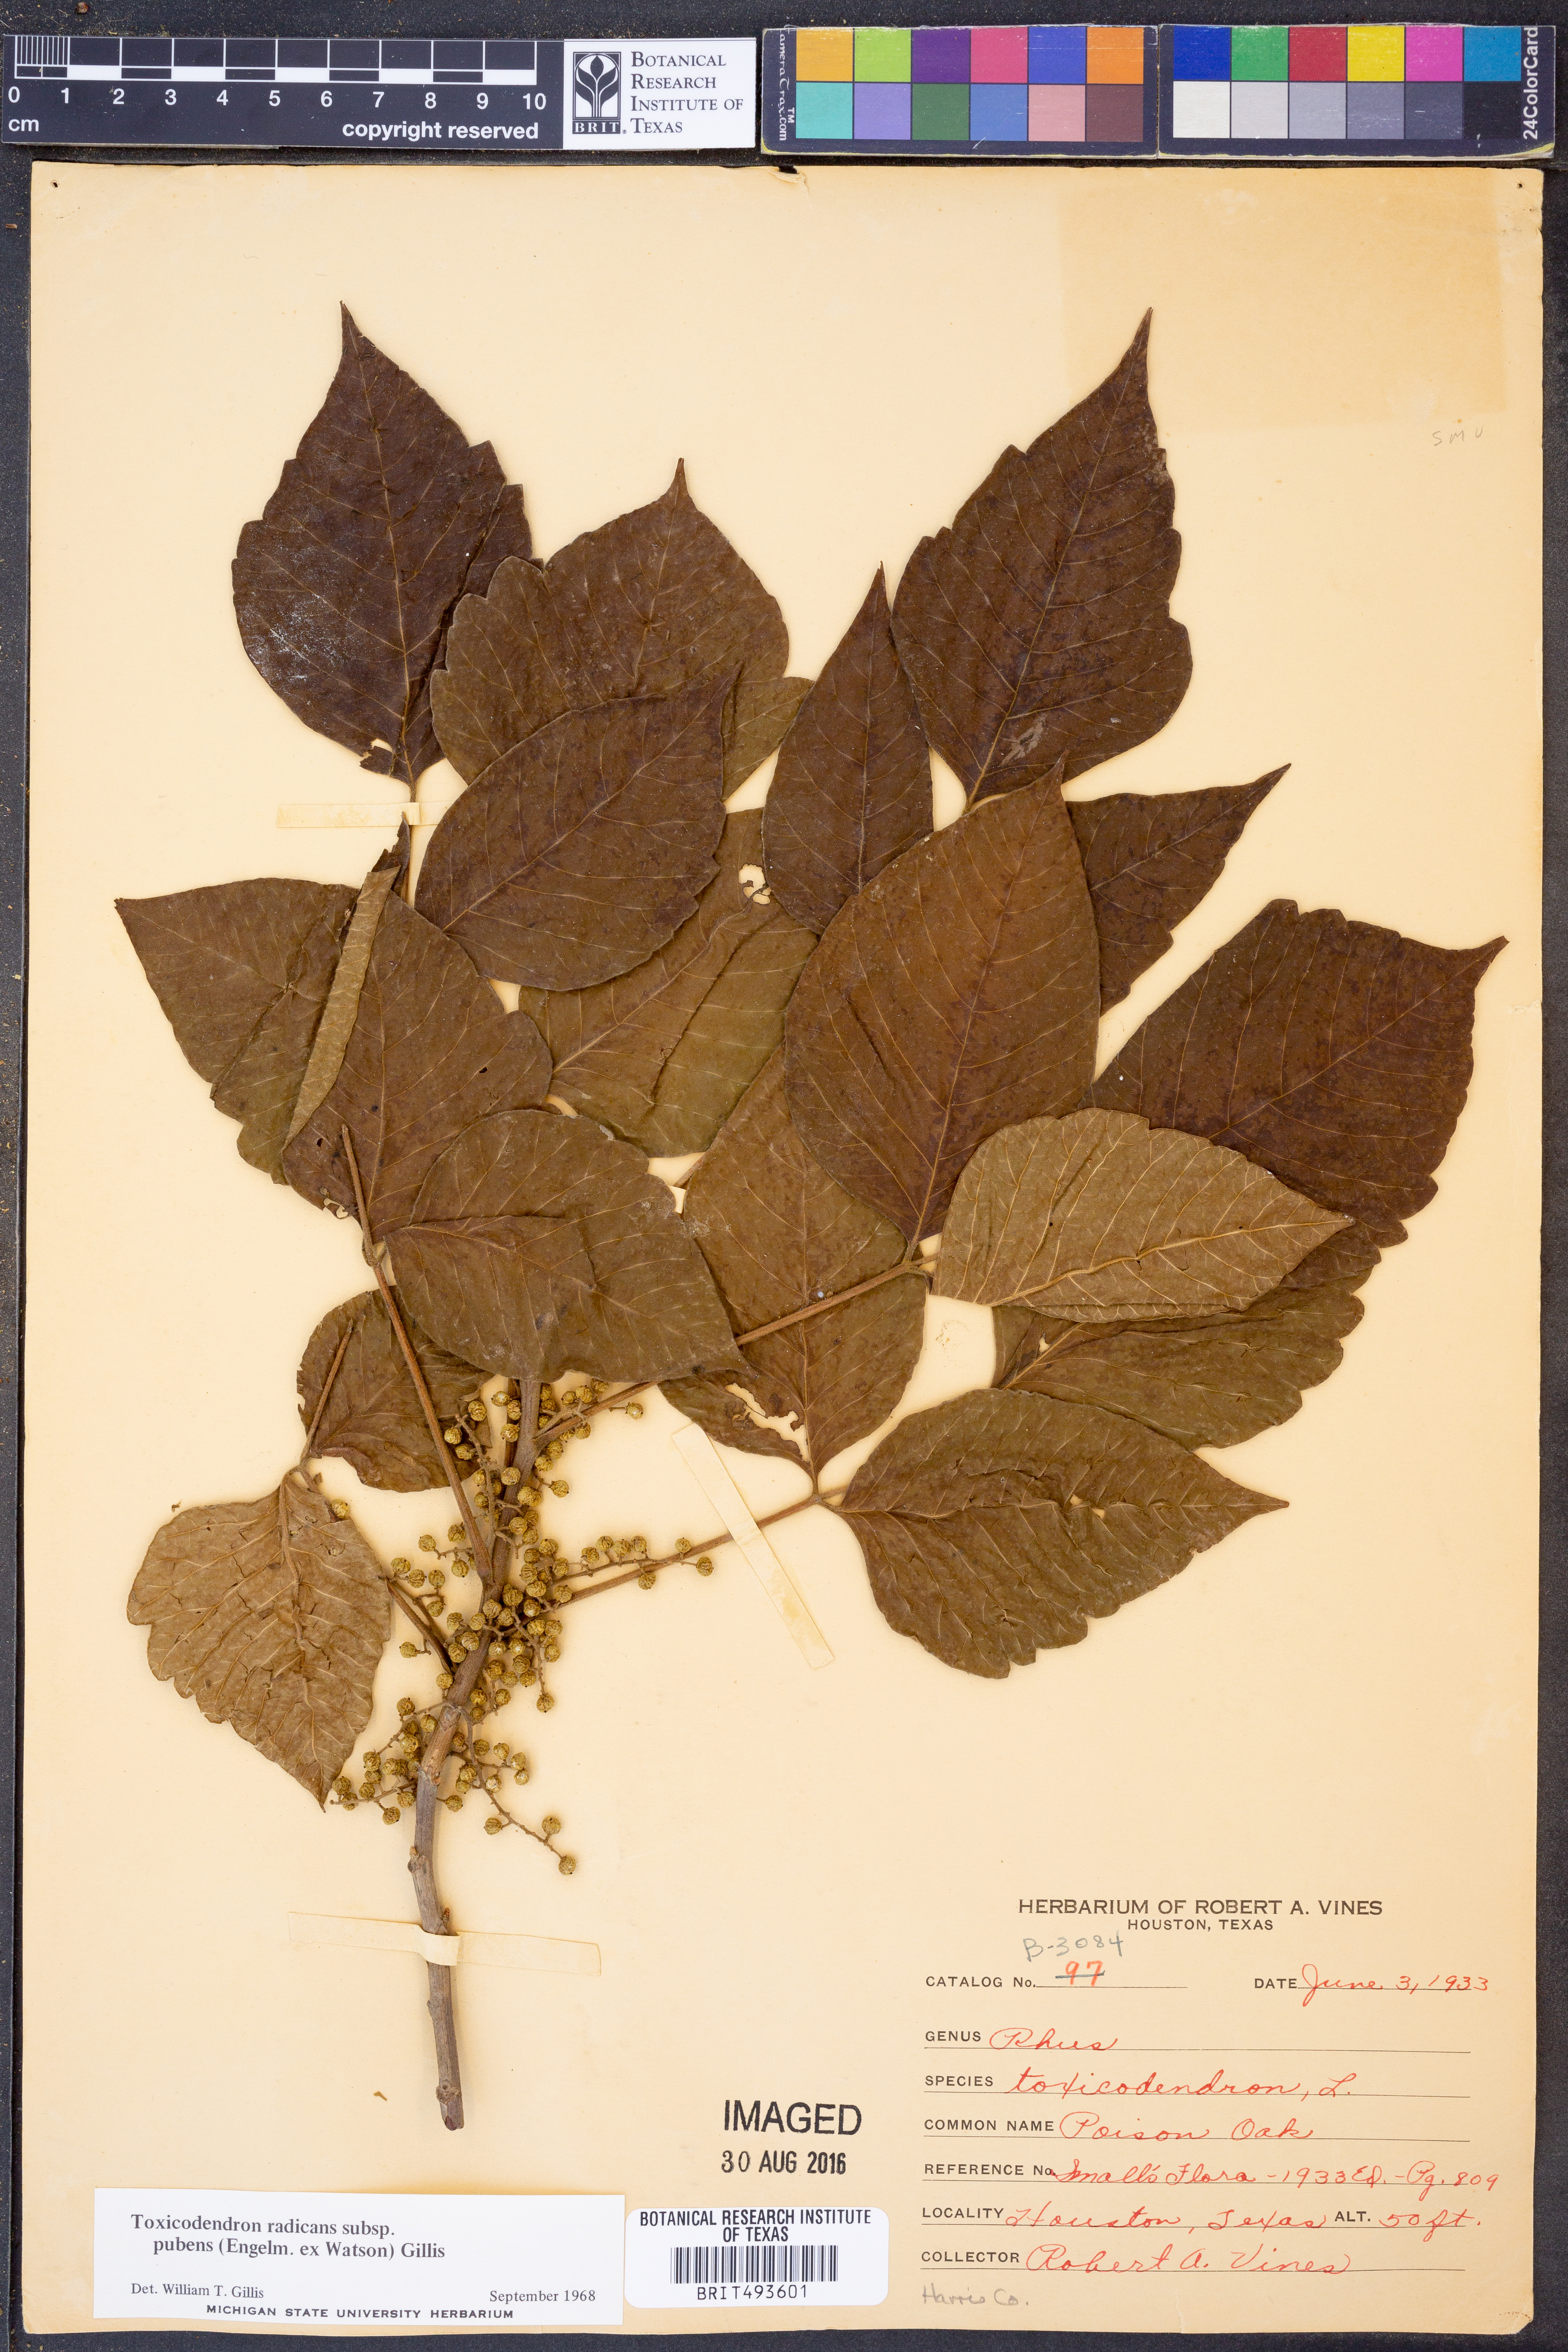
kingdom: Plantae
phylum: Tracheophyta
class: Magnoliopsida
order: Sapindales
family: Anacardiaceae
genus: Toxicodendron
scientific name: Toxicodendron radicans
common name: Poison ivy
